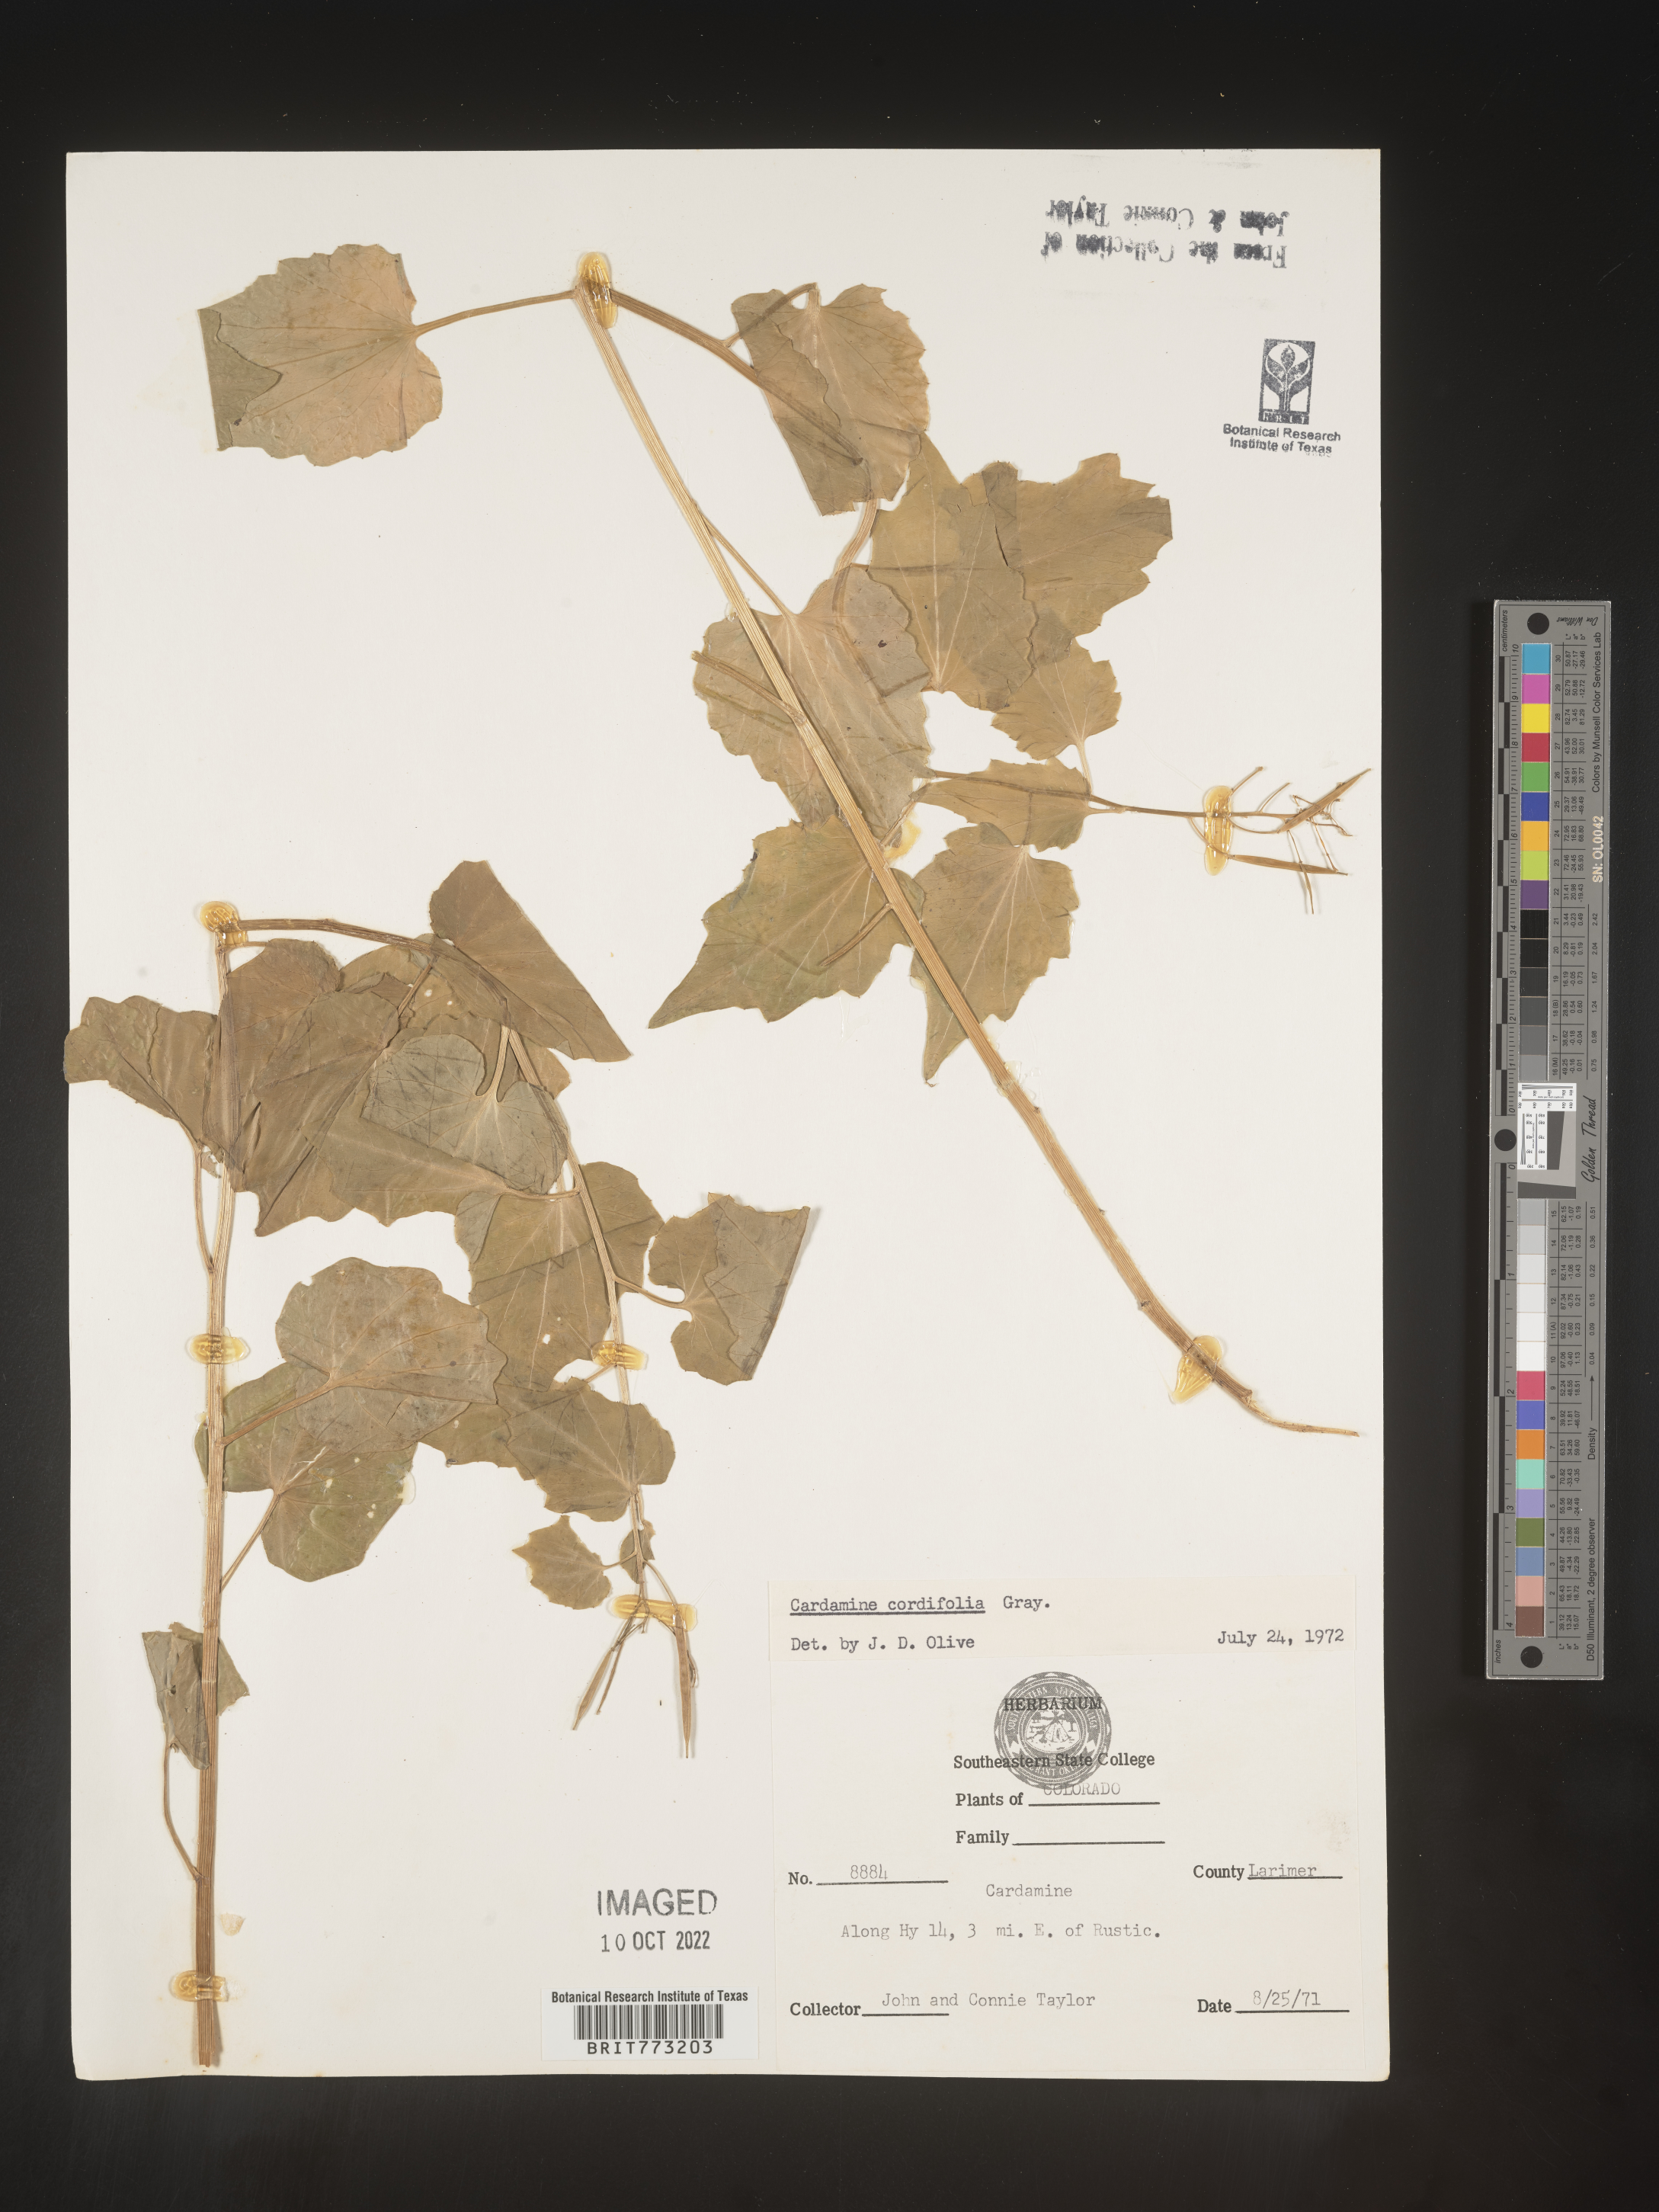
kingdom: Plantae
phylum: Tracheophyta
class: Magnoliopsida
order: Brassicales
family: Brassicaceae
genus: Cardamine
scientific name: Cardamine
